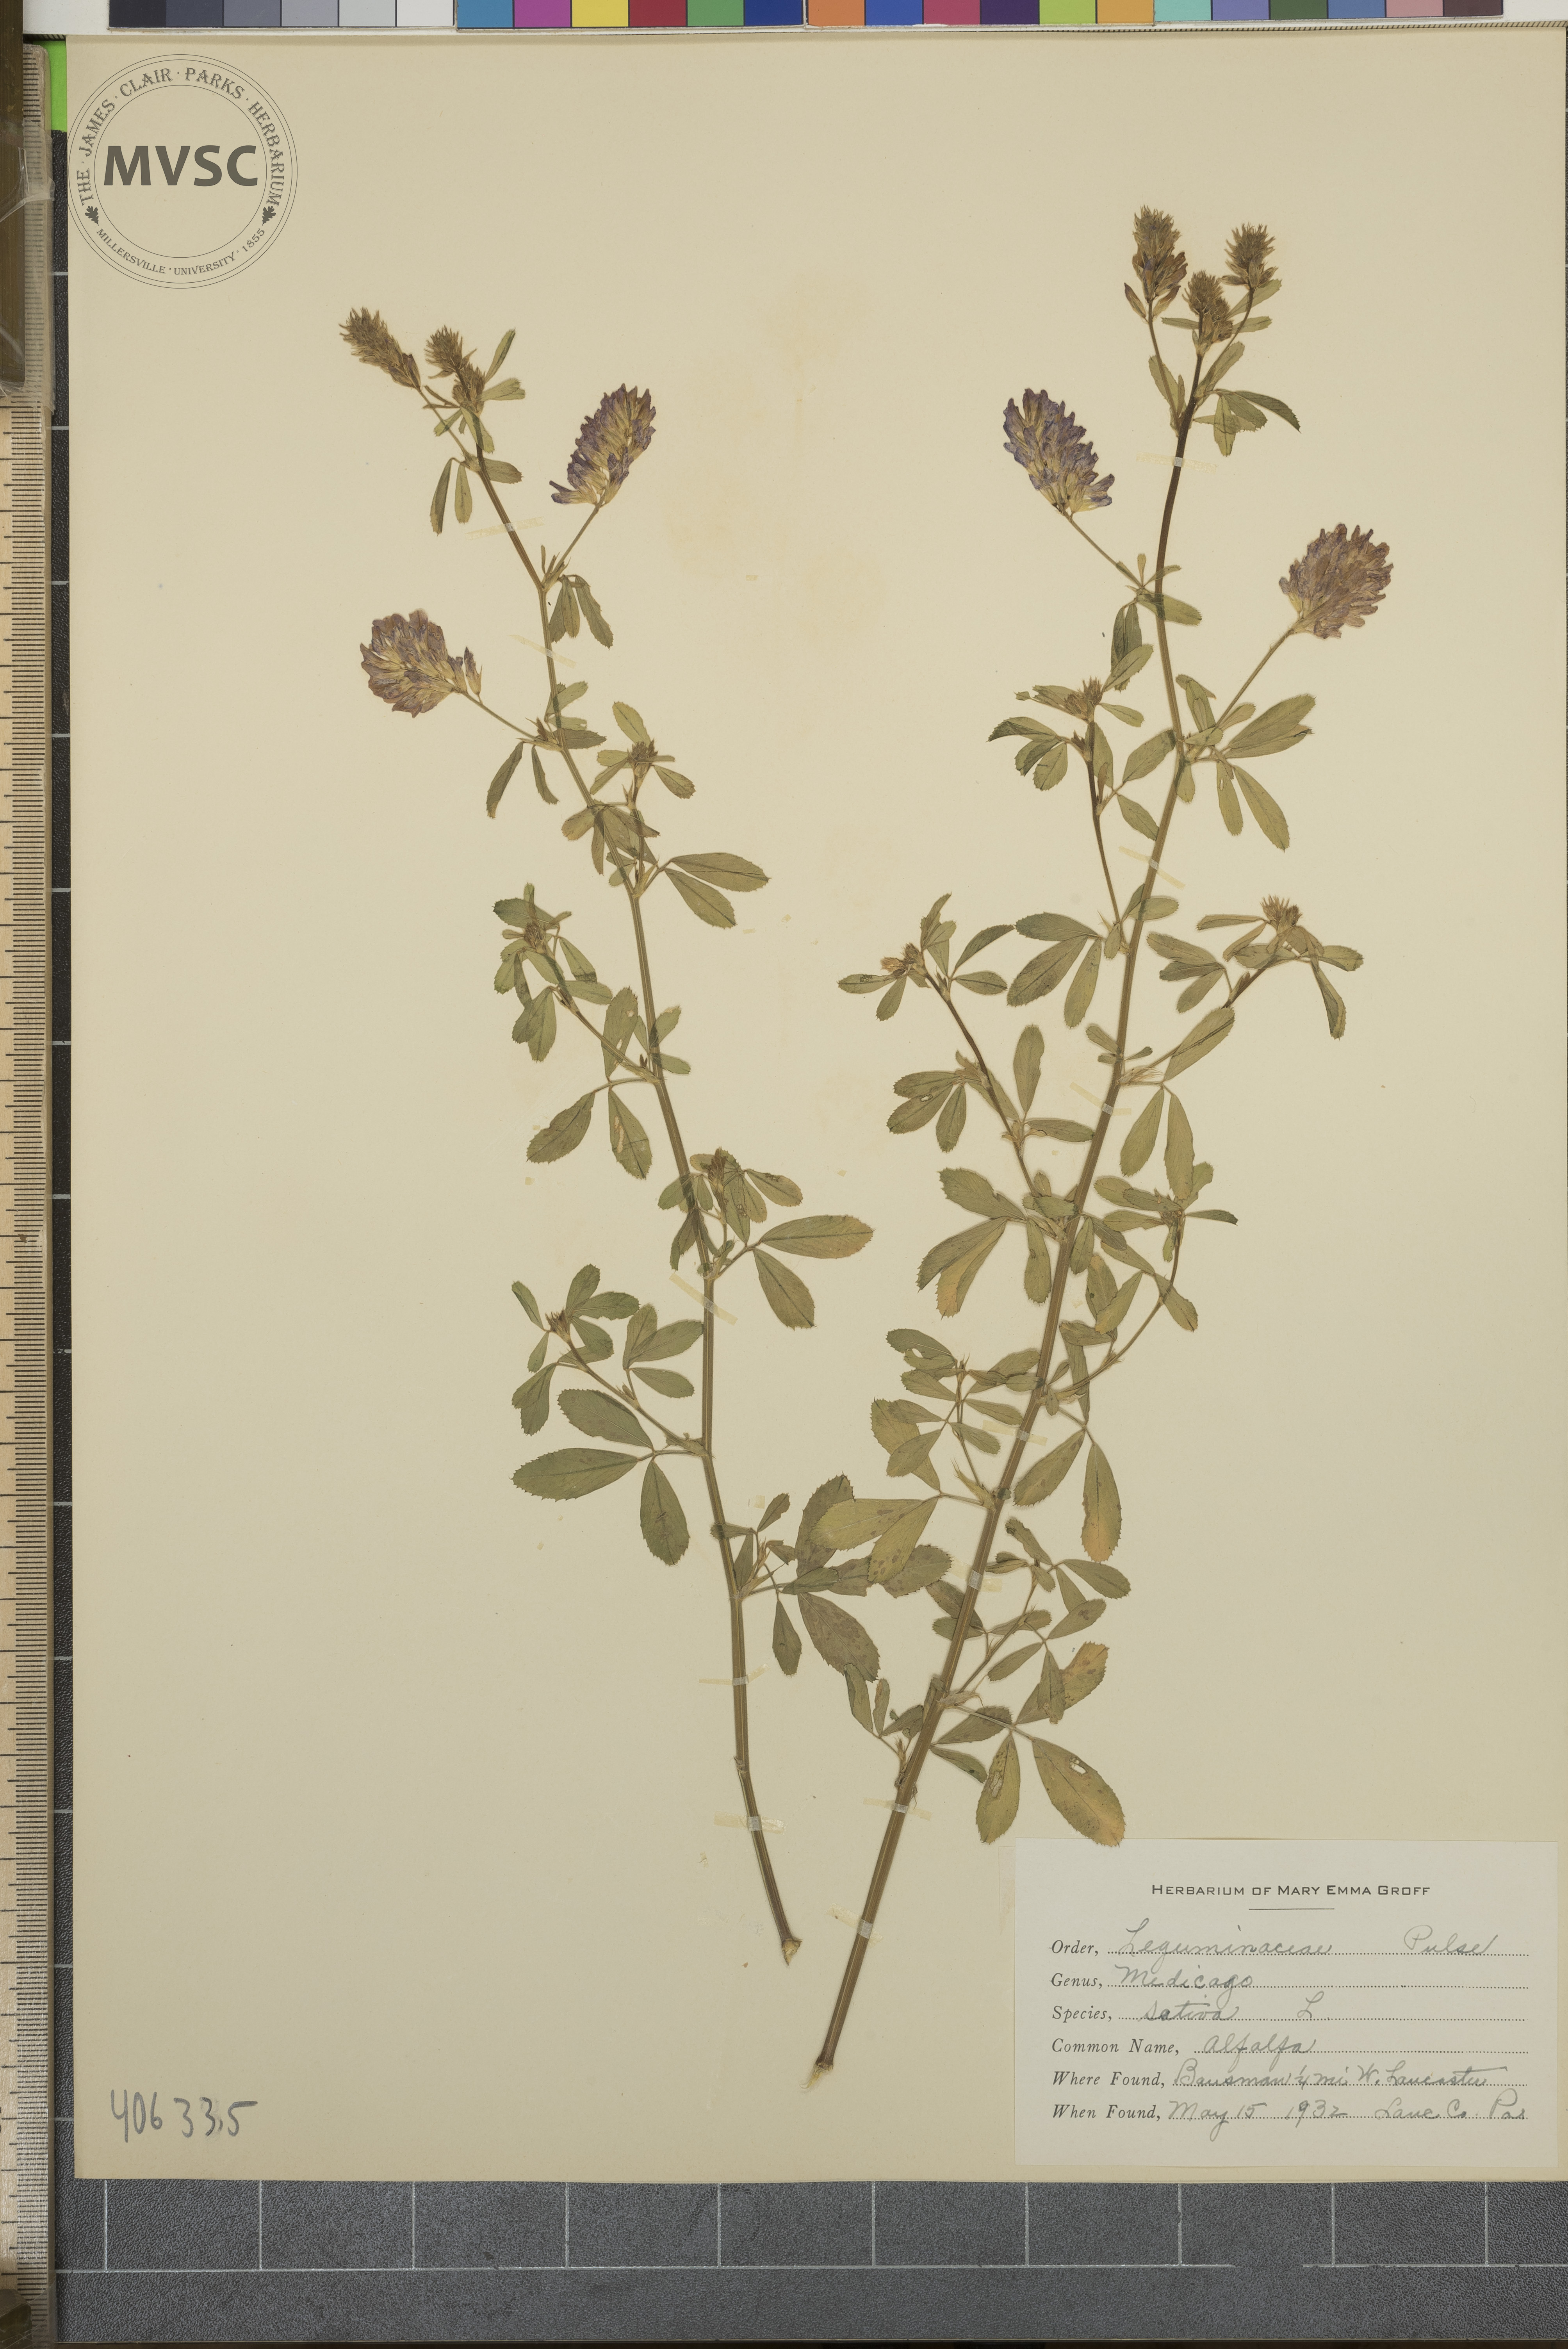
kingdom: Plantae
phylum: Tracheophyta
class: Magnoliopsida
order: Fabales
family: Fabaceae
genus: Medicago
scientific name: Medicago sativa
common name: Alfalfa
